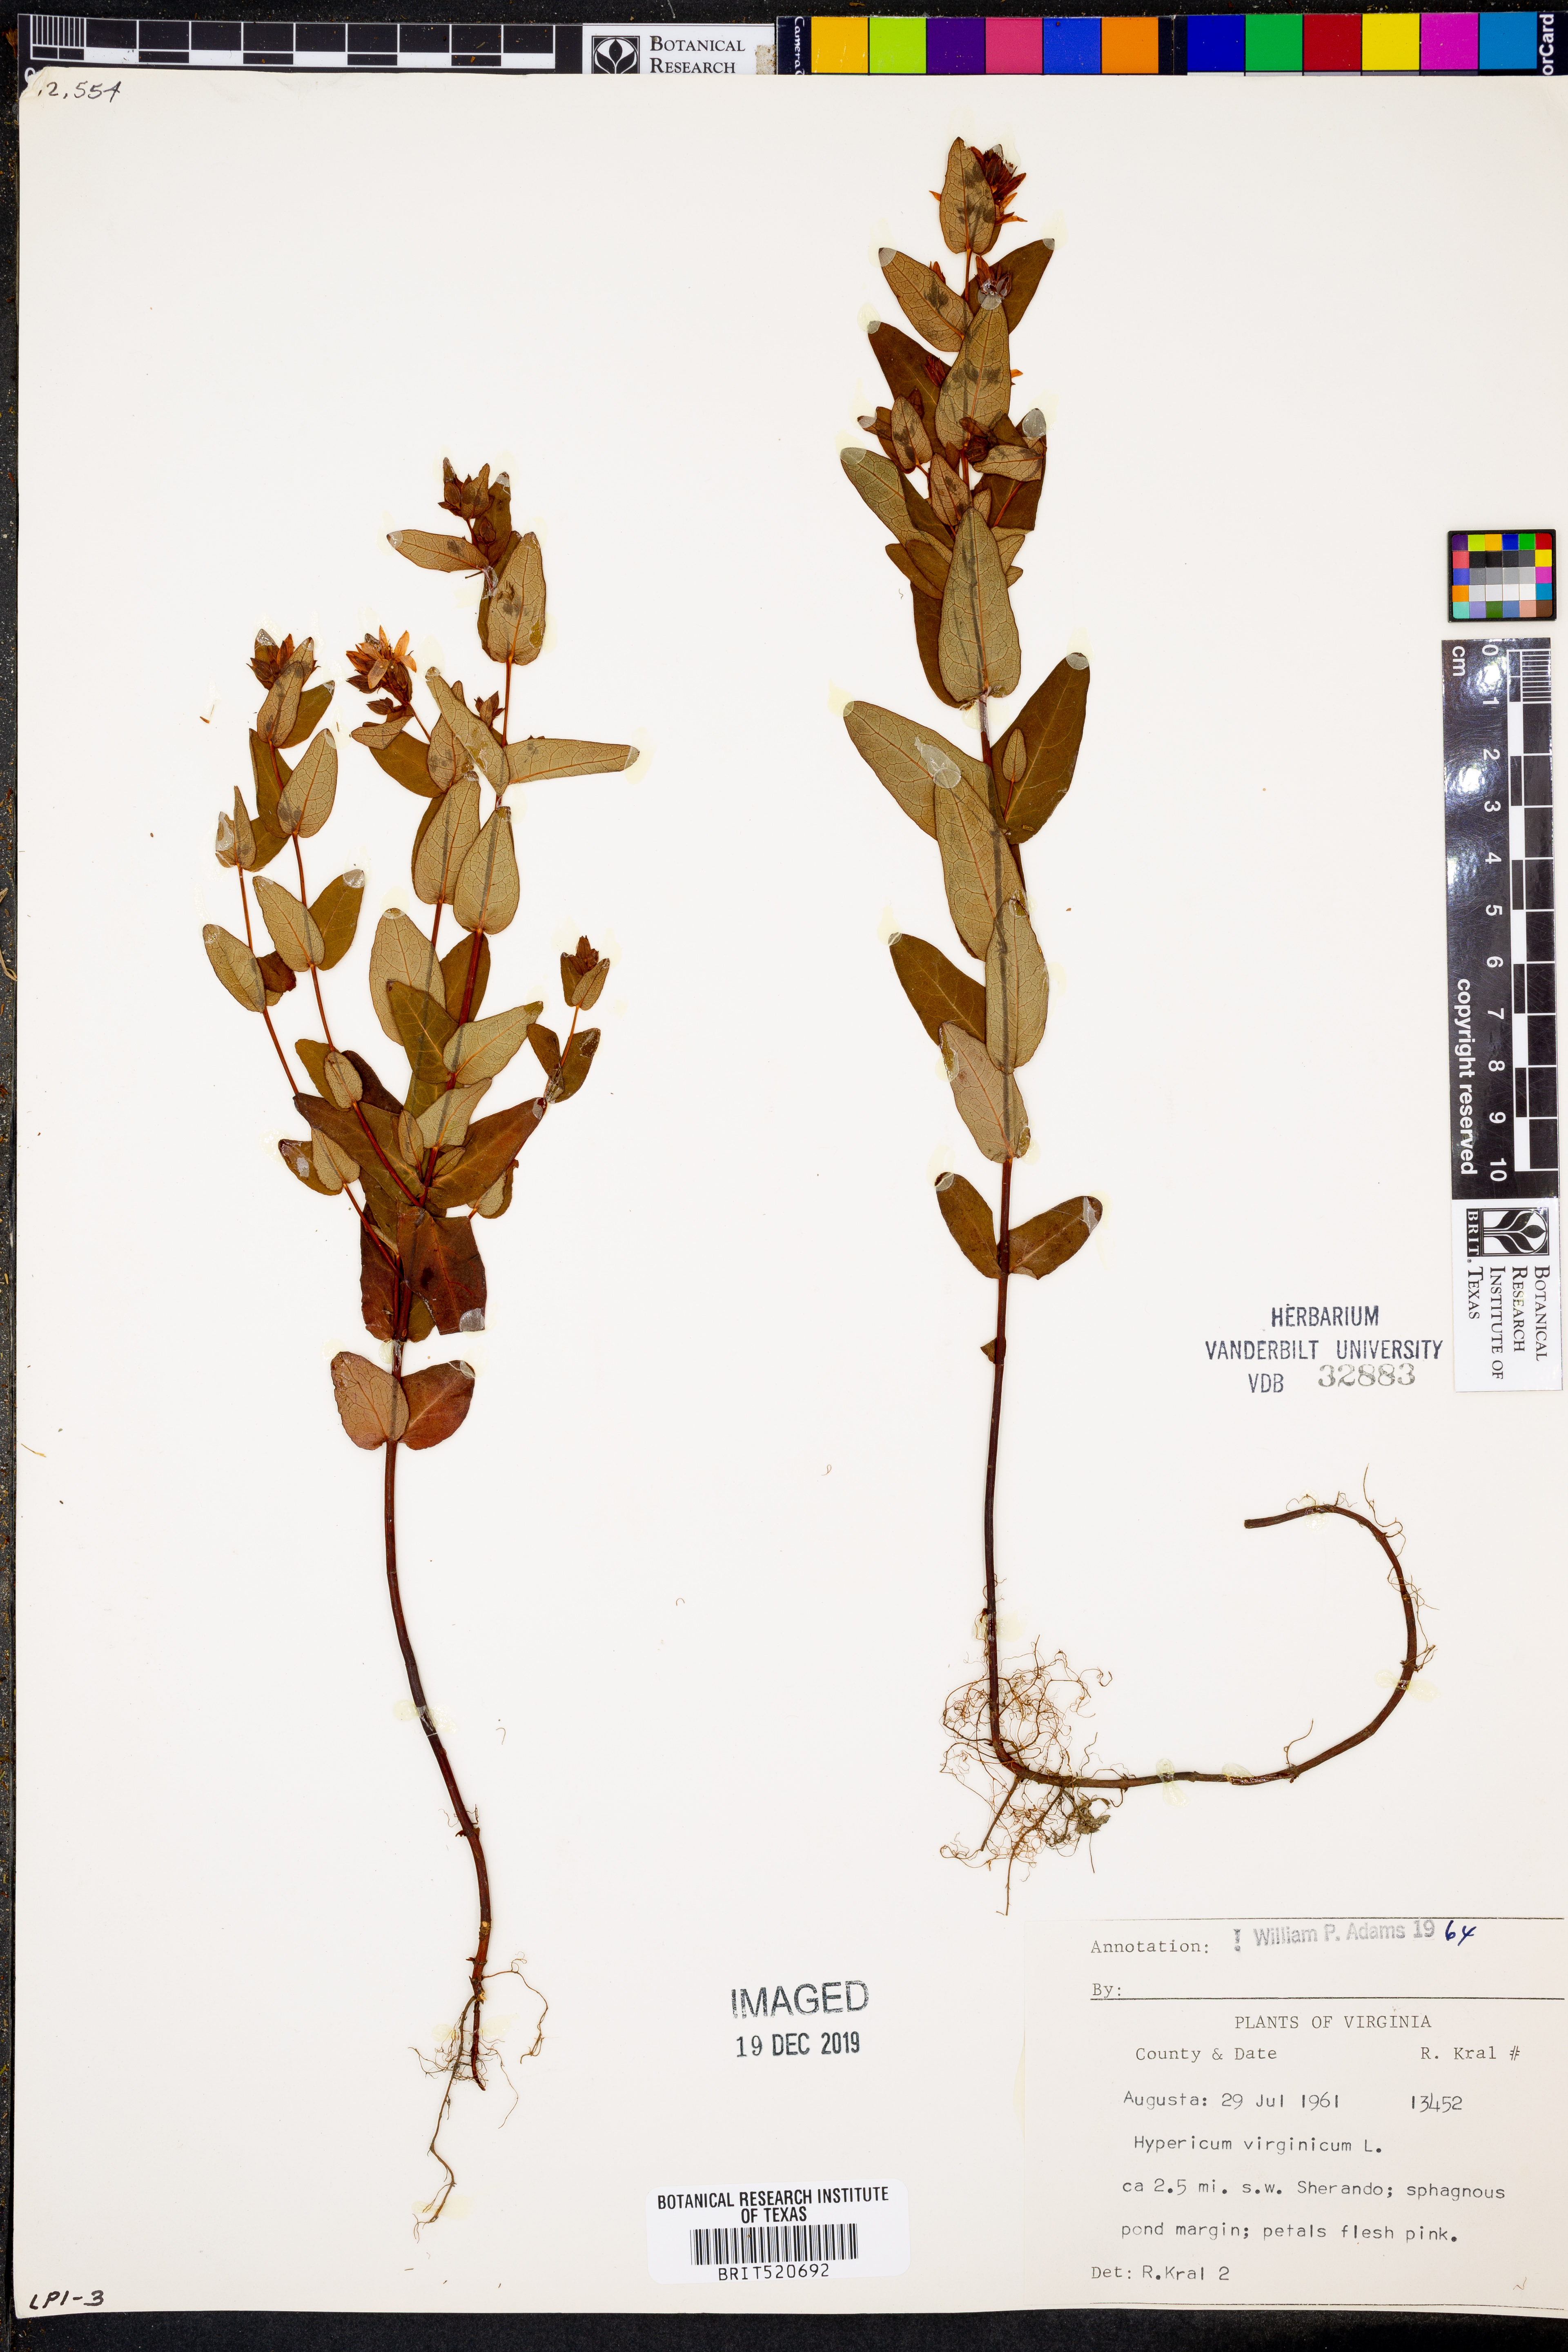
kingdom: Plantae
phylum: Tracheophyta
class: Magnoliopsida
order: Malpighiales
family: Hypericaceae
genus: Triadenum
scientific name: Triadenum virginicum
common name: Marsh st. john's-wort
